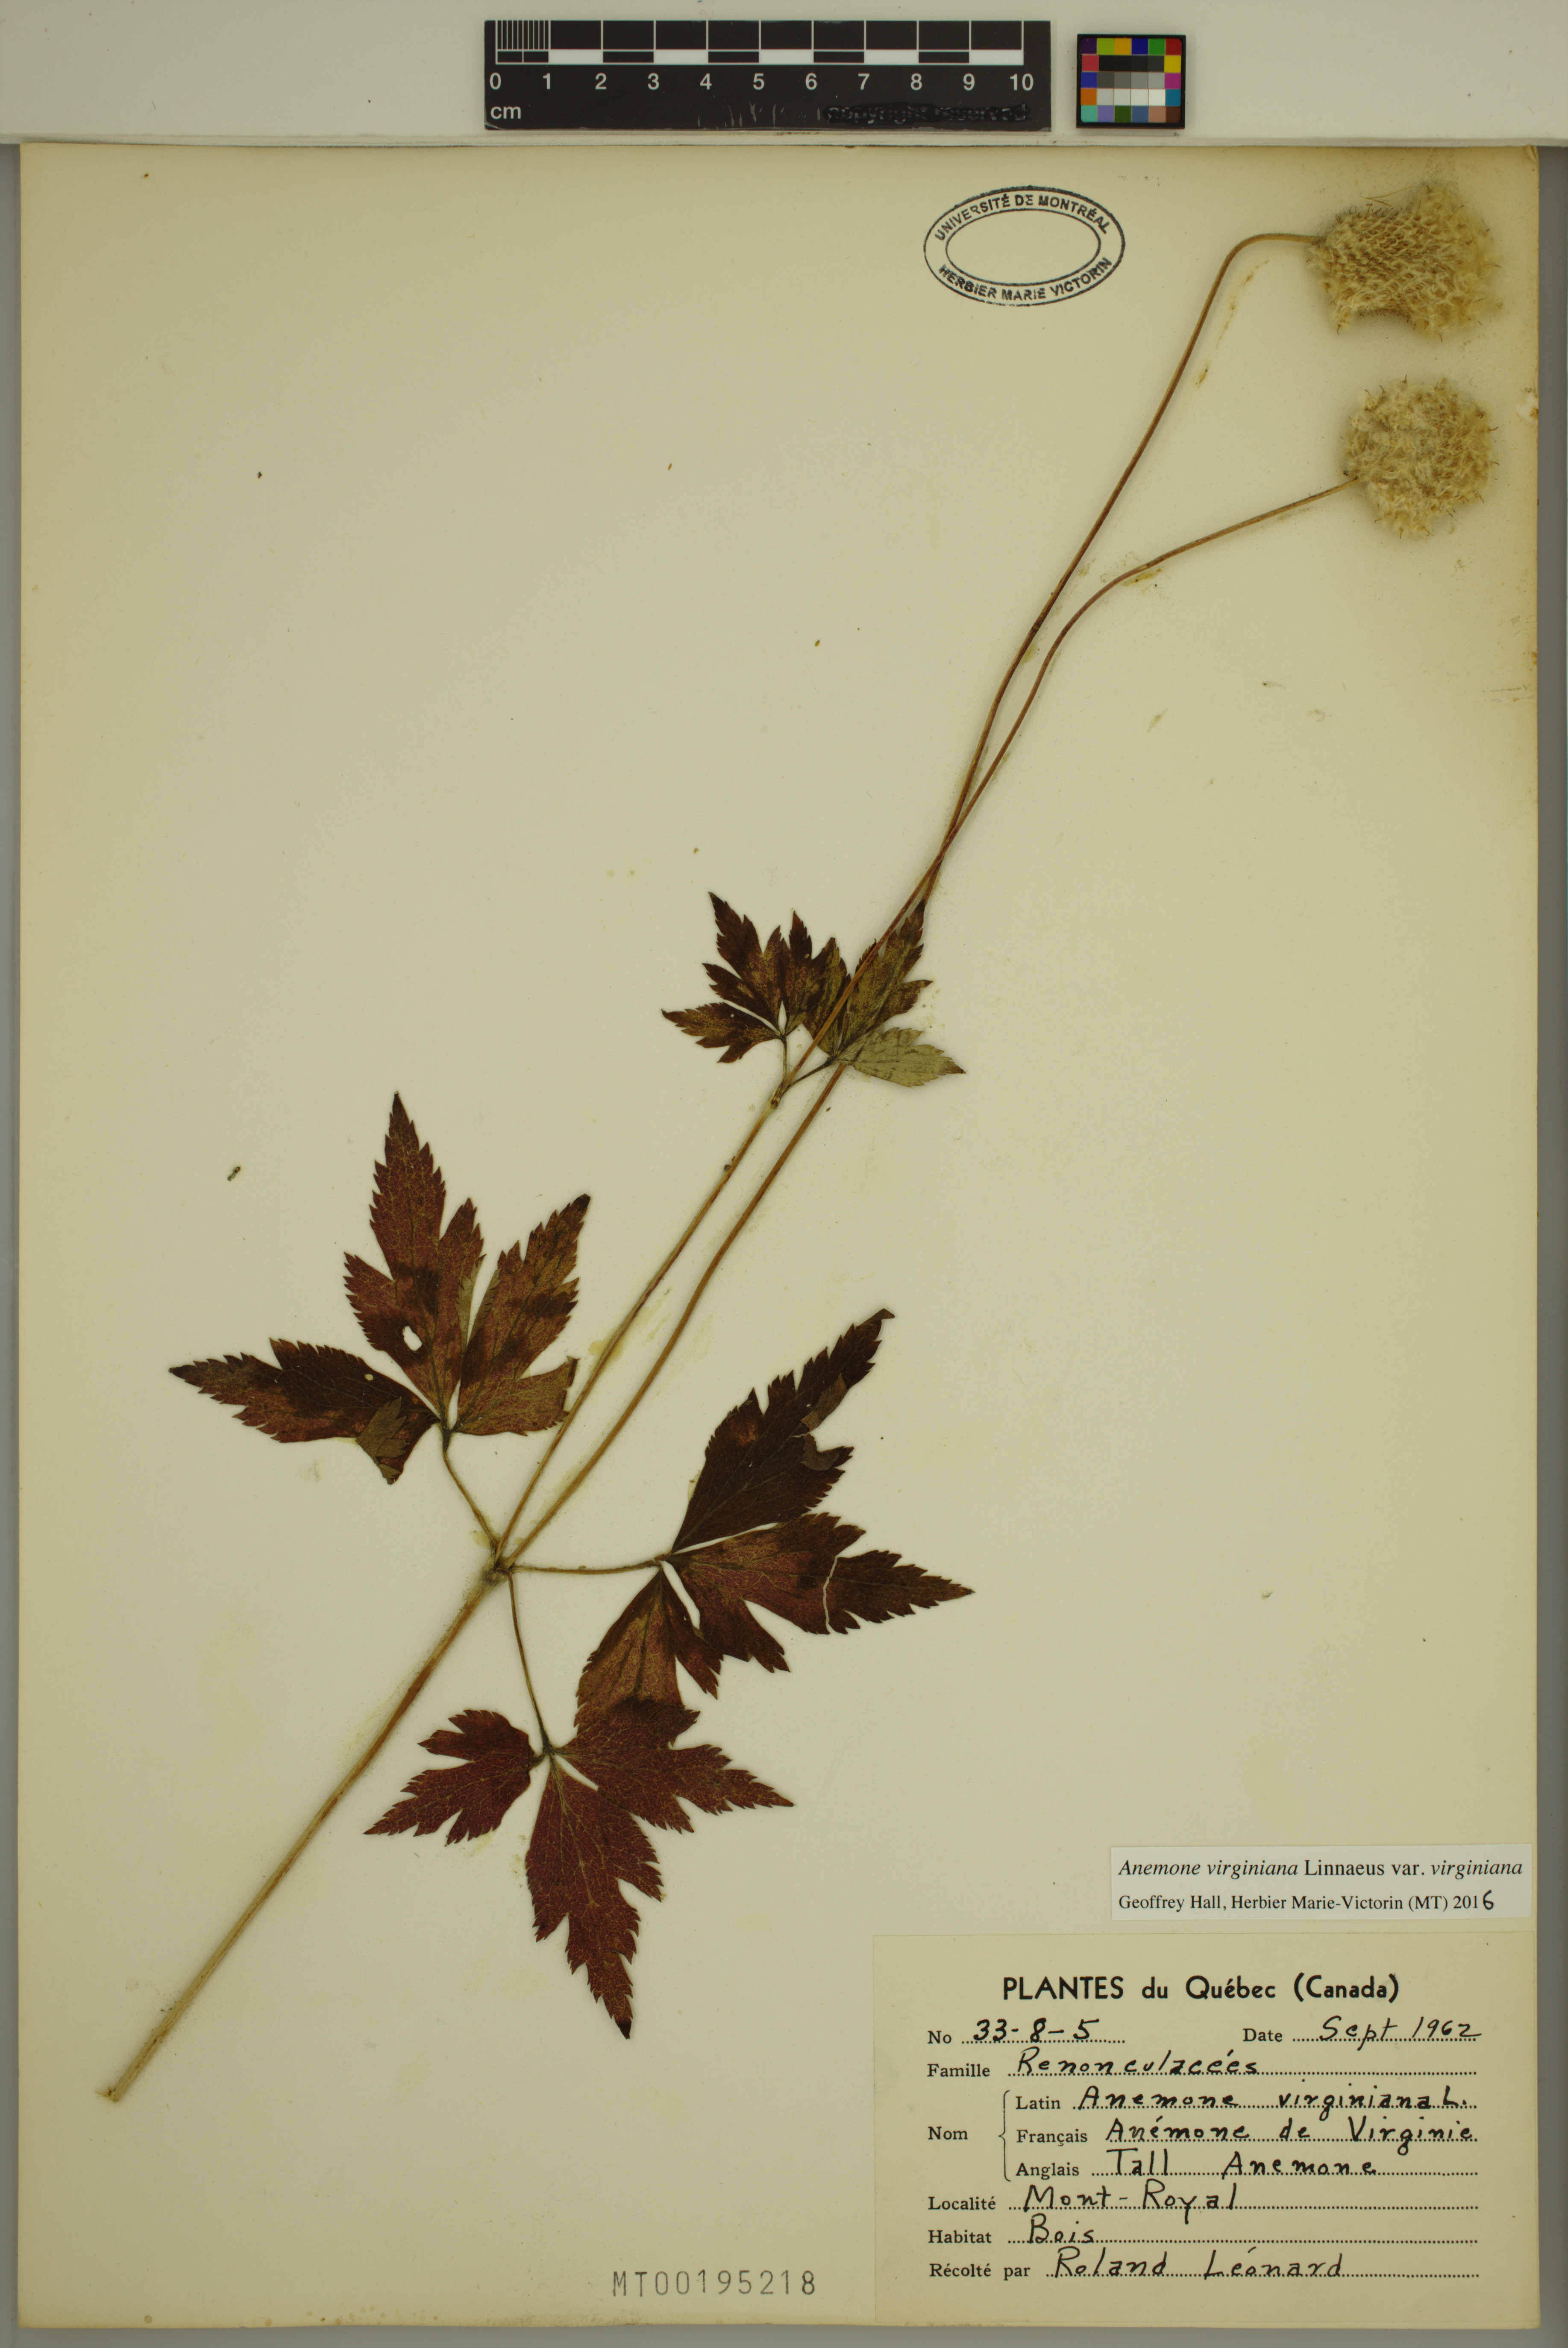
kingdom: Plantae
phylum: Tracheophyta
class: Magnoliopsida
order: Ranunculales
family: Ranunculaceae
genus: Anemone
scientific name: Anemone virginiana
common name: Tall anemone
